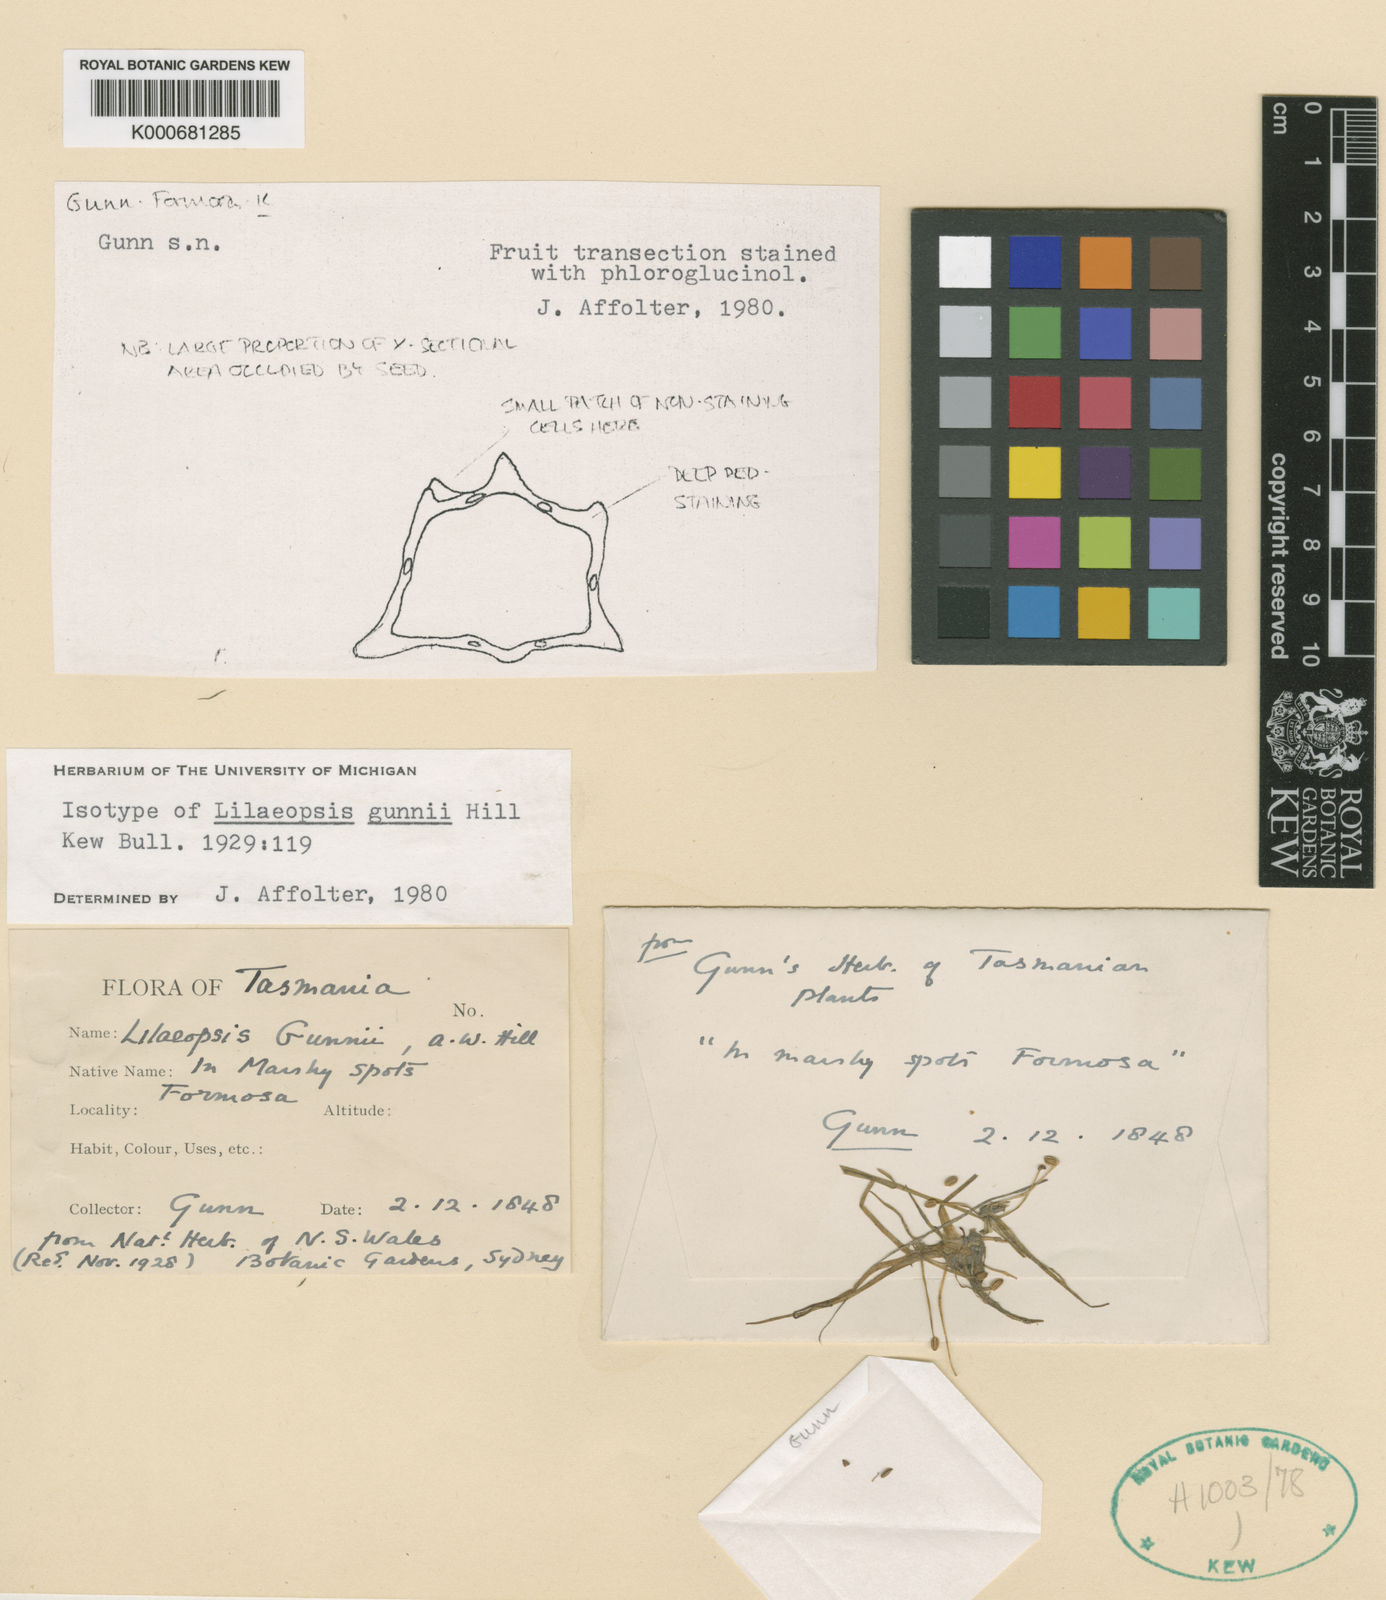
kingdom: Plantae
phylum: Tracheophyta
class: Magnoliopsida
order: Apiales
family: Apiaceae
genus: Lilaeopsis
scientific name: Lilaeopsis polyantha
